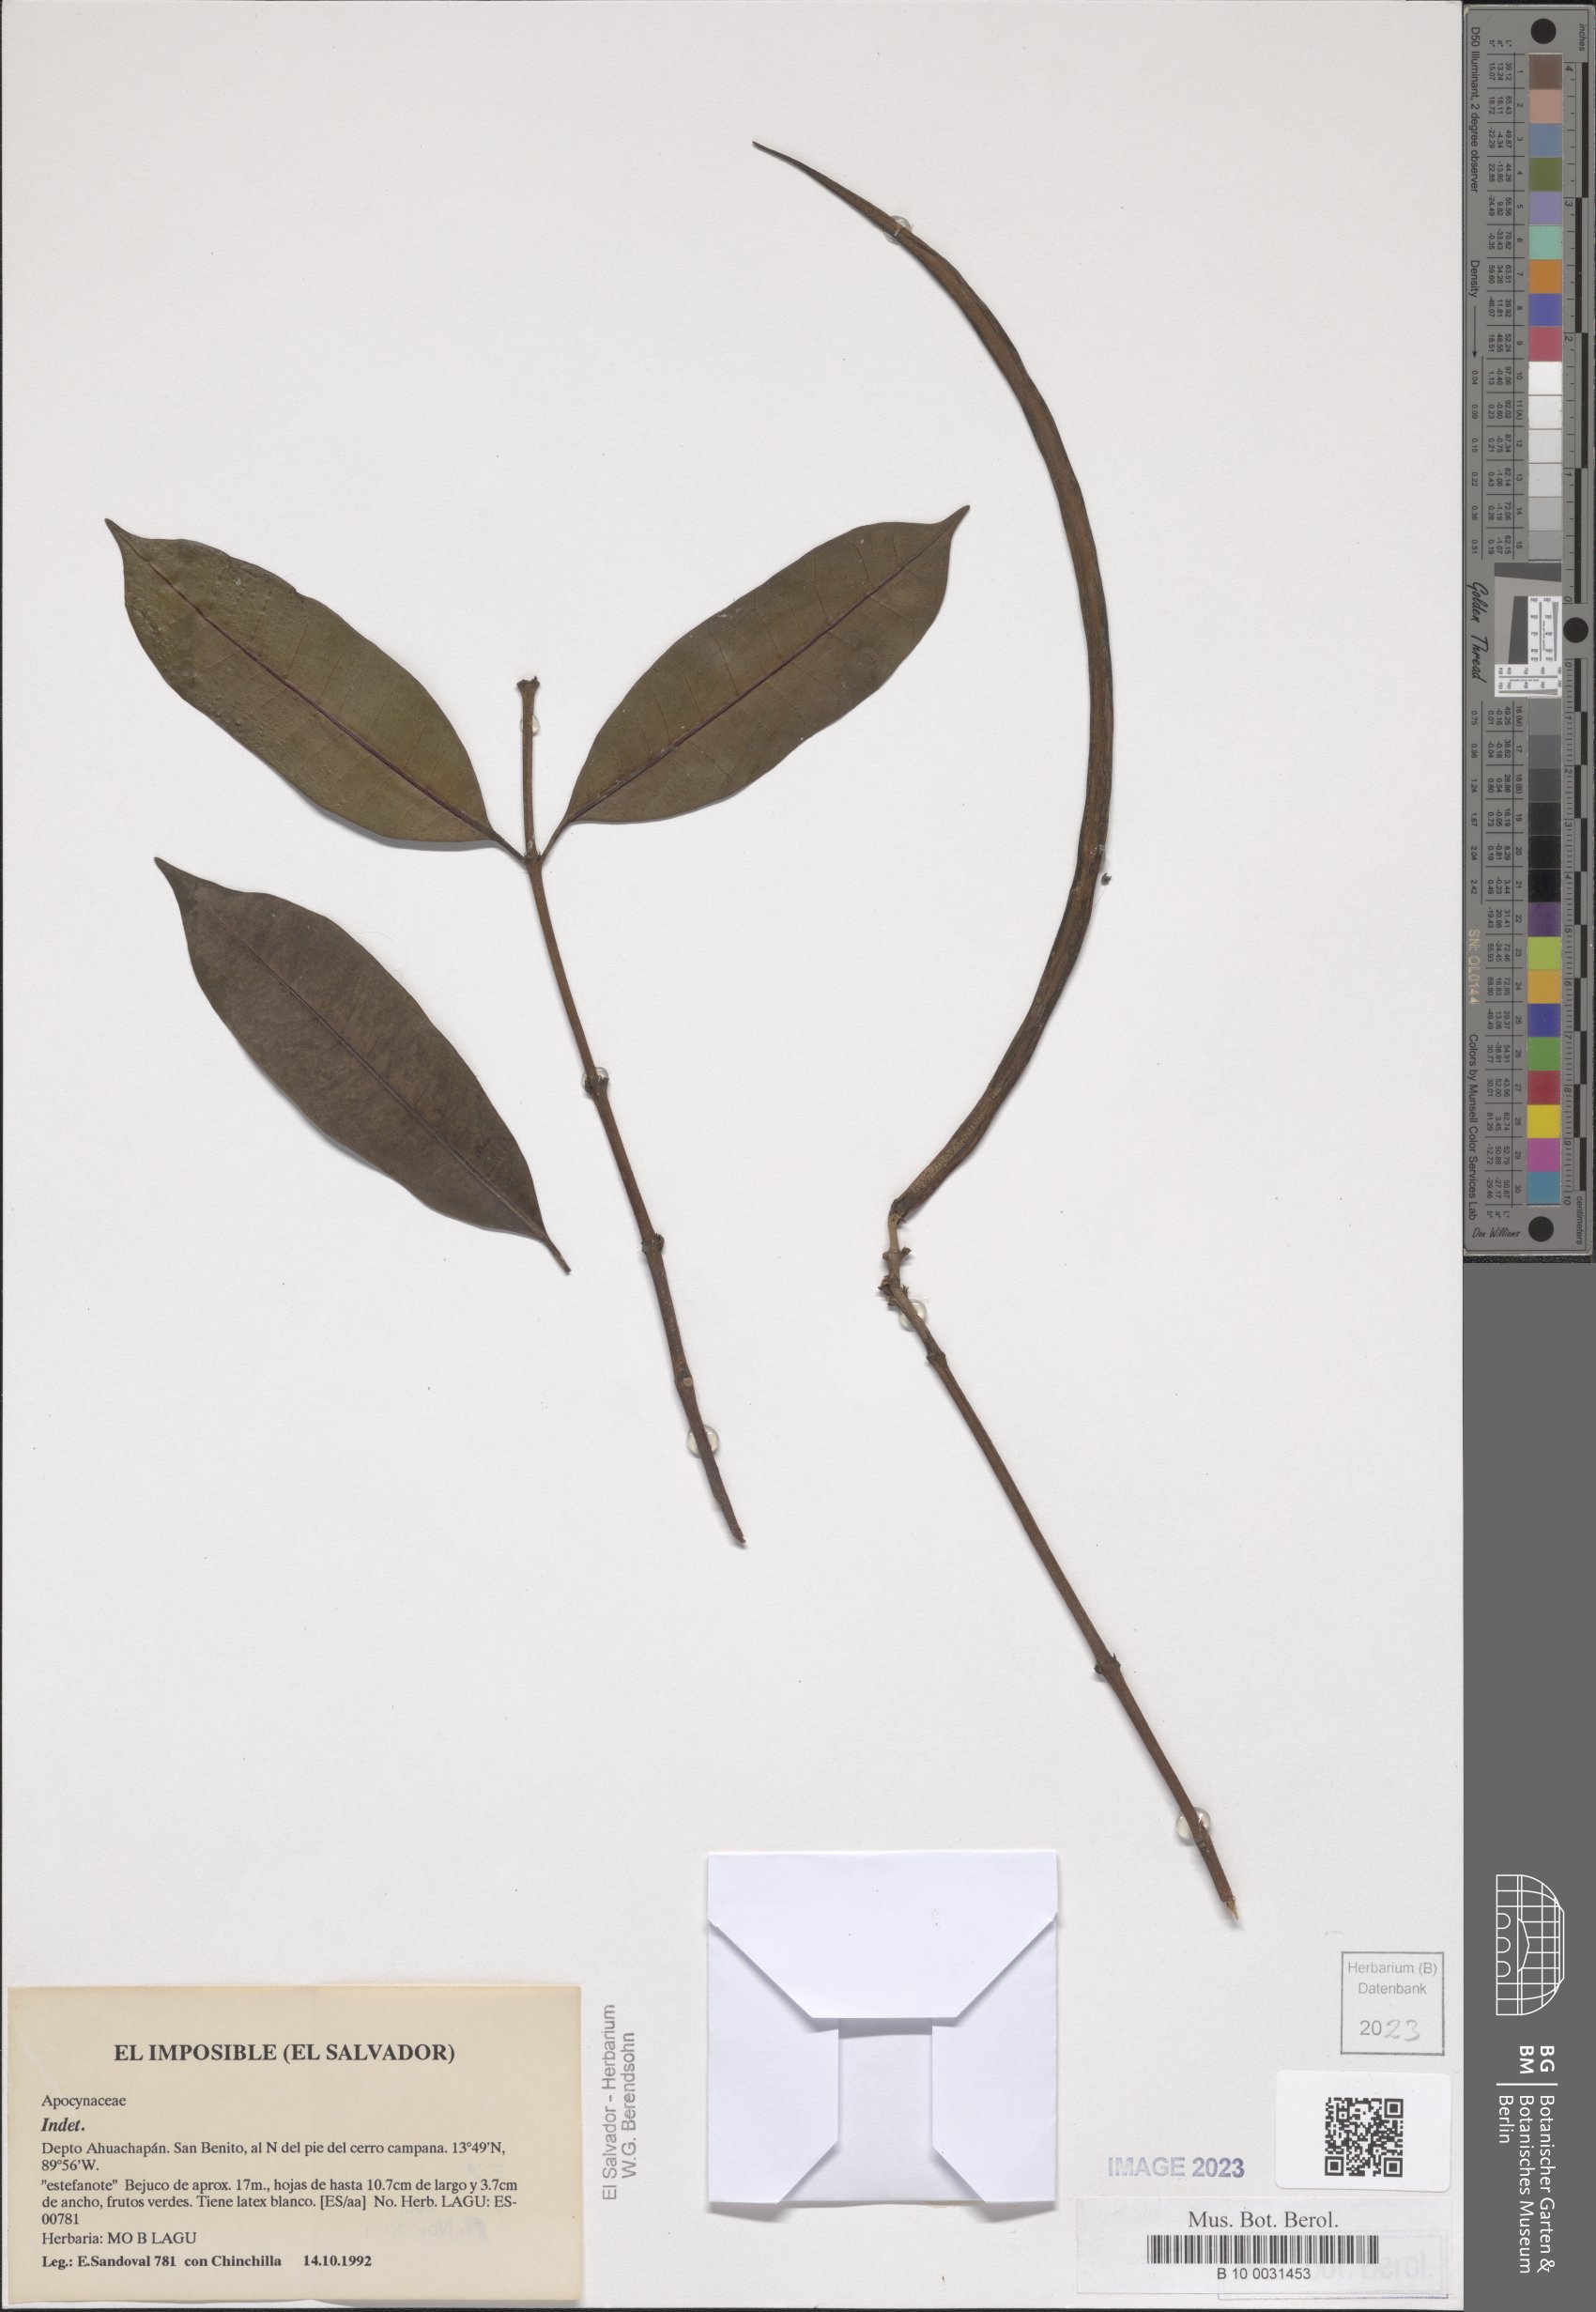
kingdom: Plantae
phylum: Tracheophyta
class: Magnoliopsida
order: Gentianales
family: Apocynaceae
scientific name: Apocynaceae
